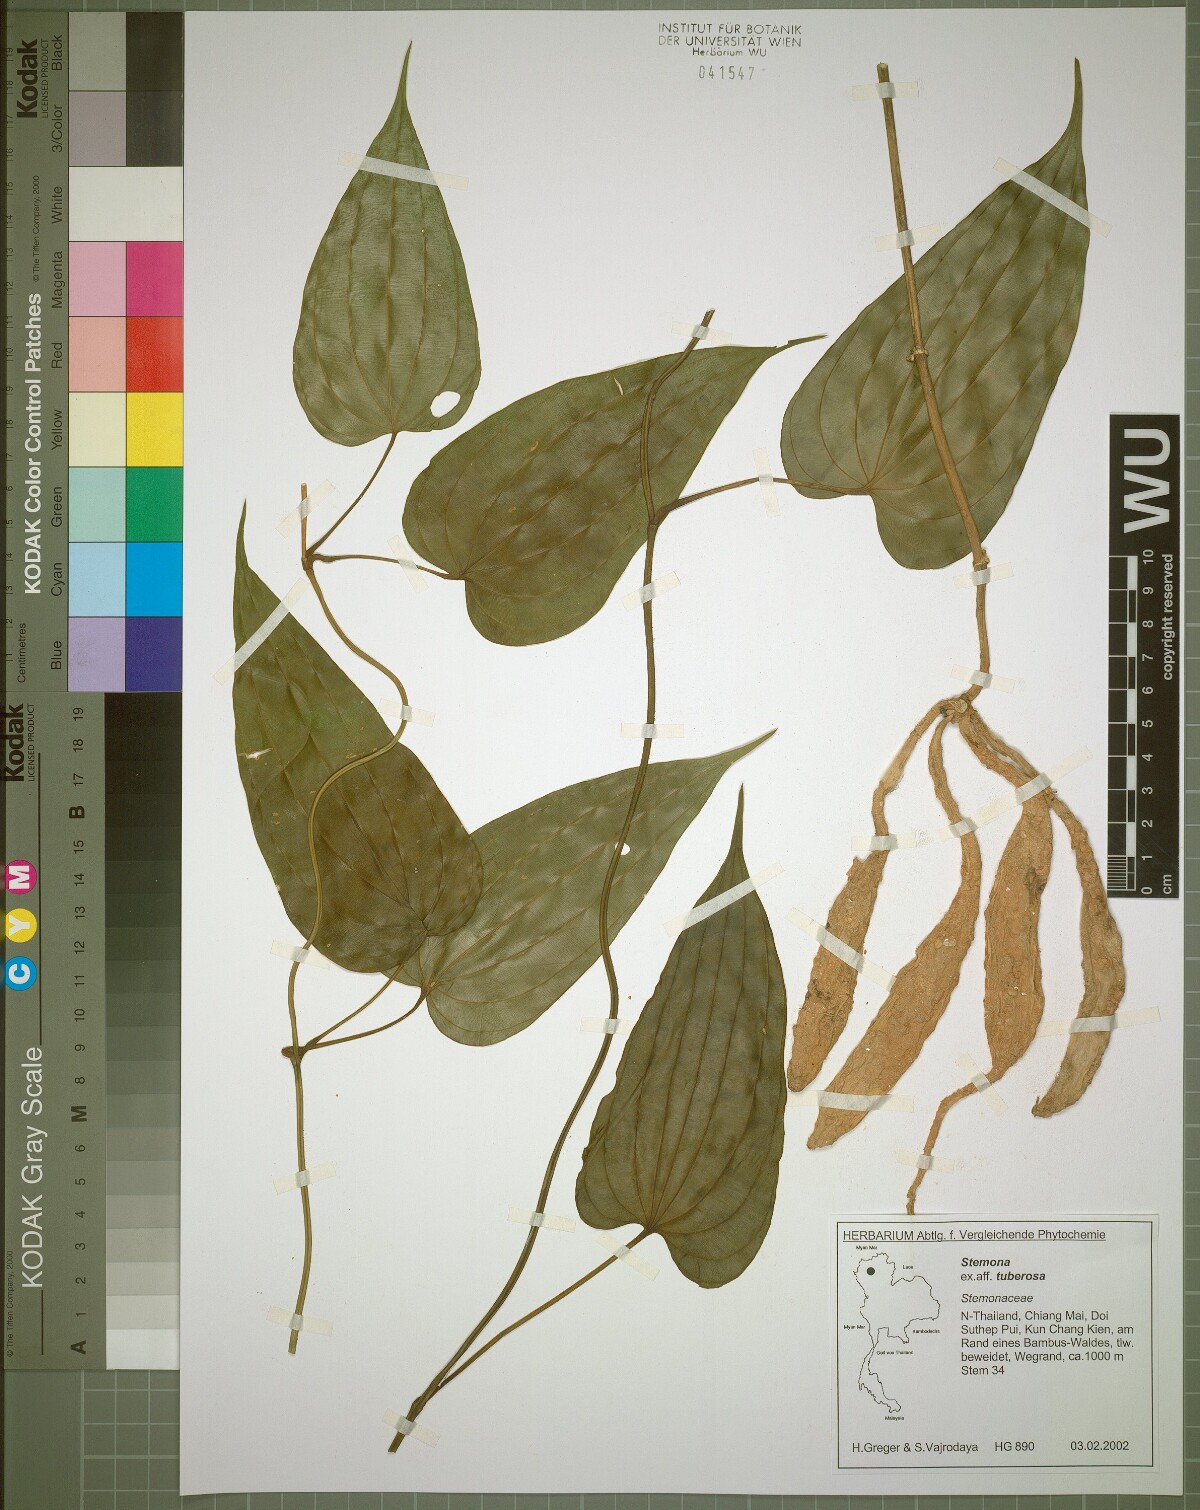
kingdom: Plantae
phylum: Tracheophyta
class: Liliopsida
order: Pandanales
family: Stemonaceae
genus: Stemona
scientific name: Stemona tuberosa
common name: Stemona
